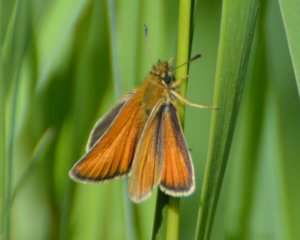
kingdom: Animalia
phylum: Arthropoda
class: Insecta
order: Lepidoptera
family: Hesperiidae
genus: Thymelicus
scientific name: Thymelicus lineola
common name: European Skipper
